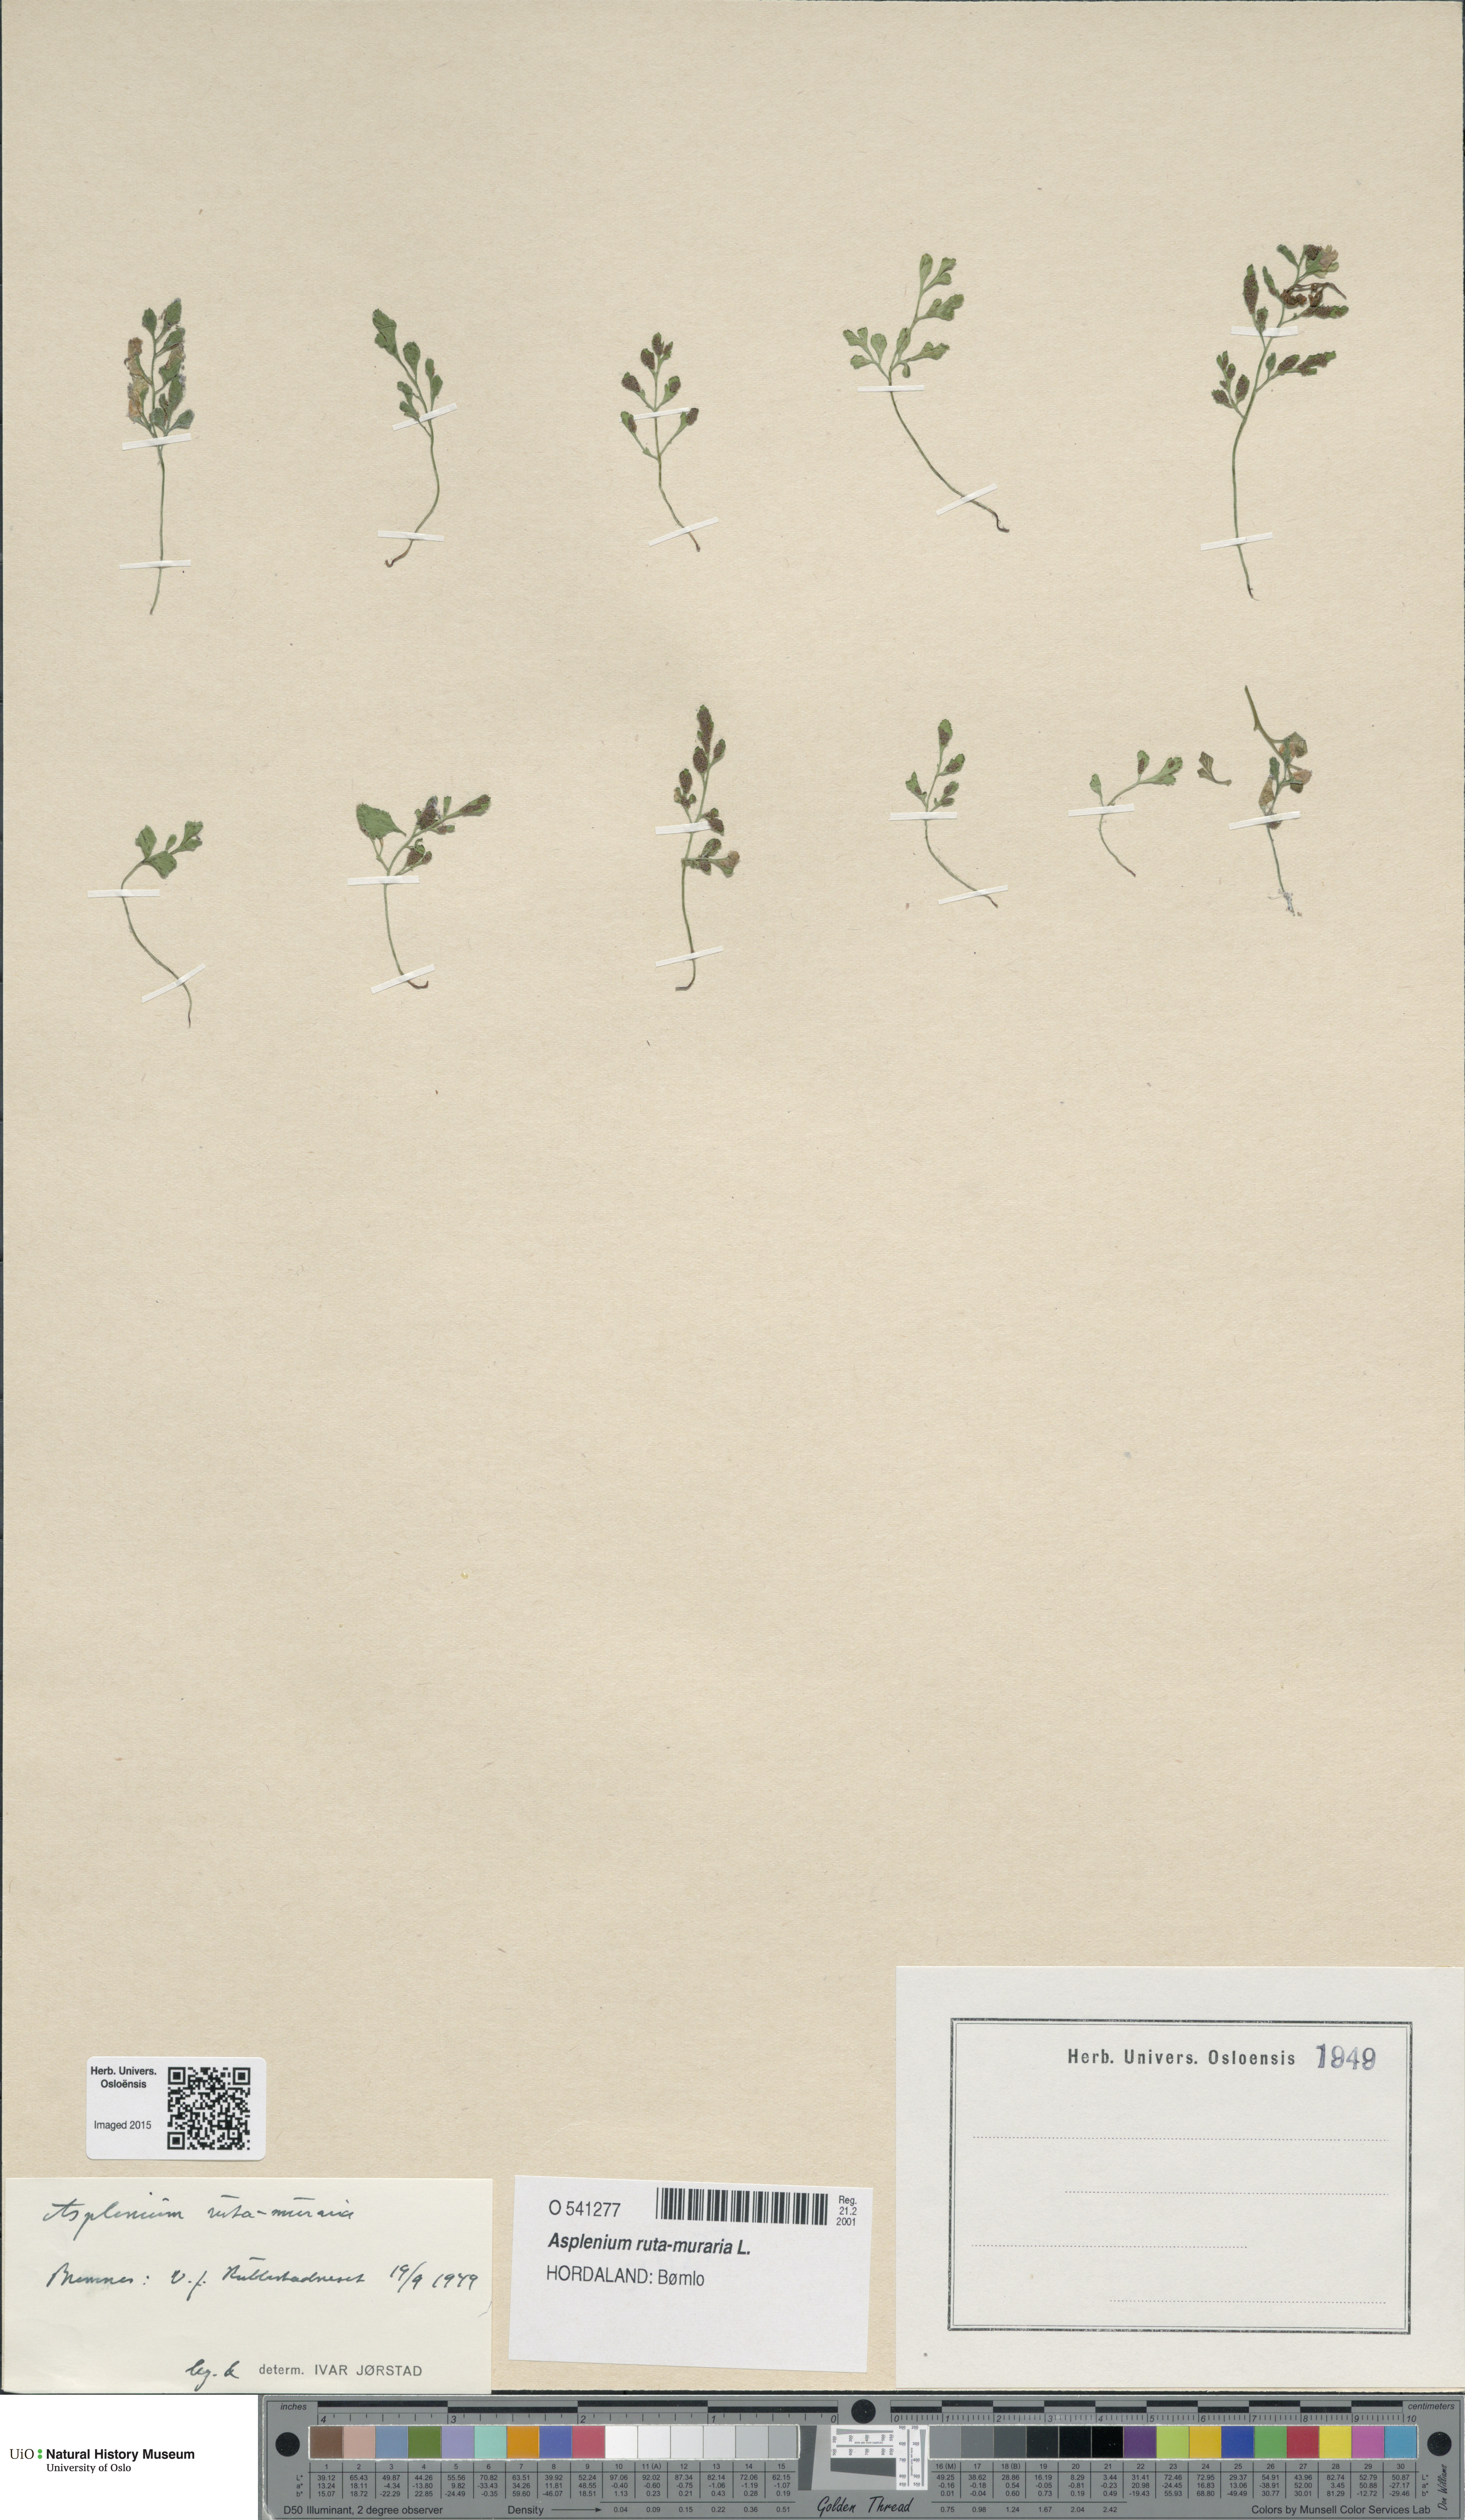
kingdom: Plantae
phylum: Tracheophyta
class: Polypodiopsida
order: Polypodiales
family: Aspleniaceae
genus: Asplenium
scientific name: Asplenium ruta-muraria
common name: Wall-rue
